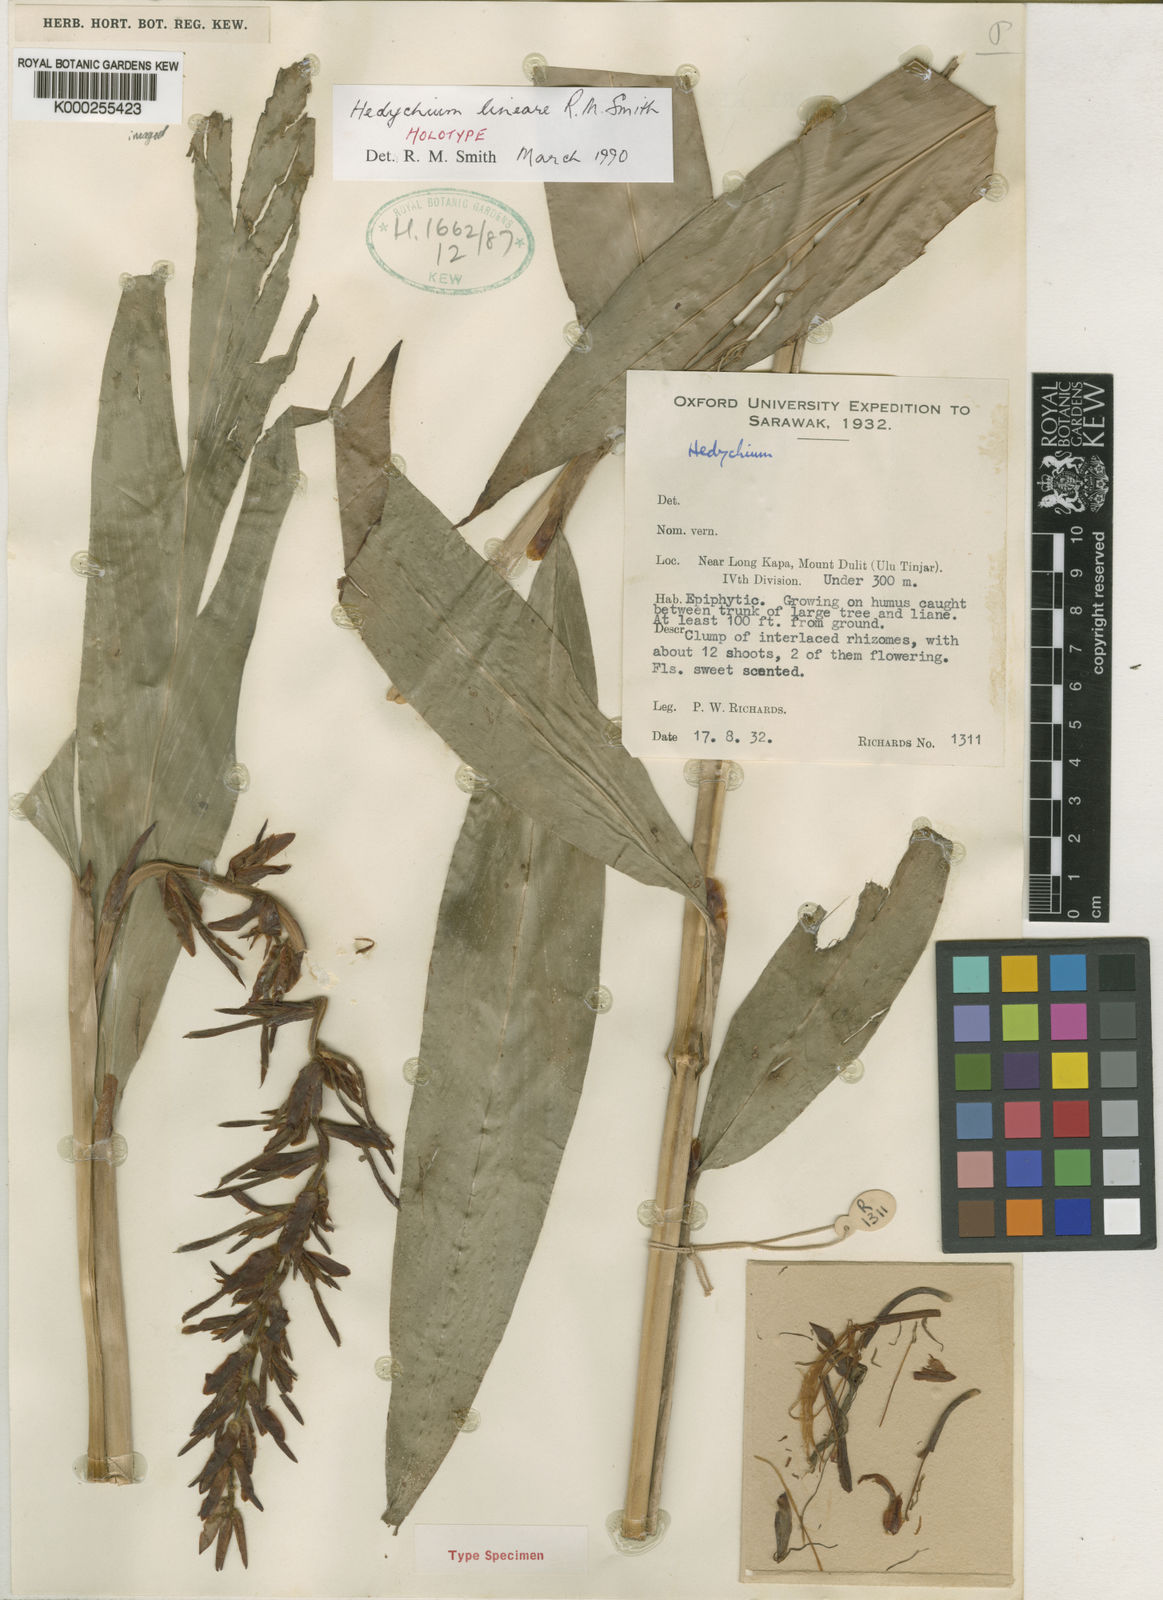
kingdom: Plantae
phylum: Tracheophyta
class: Liliopsida
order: Zingiberales
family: Zingiberaceae
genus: Hedychium
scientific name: Hedychium lineare
